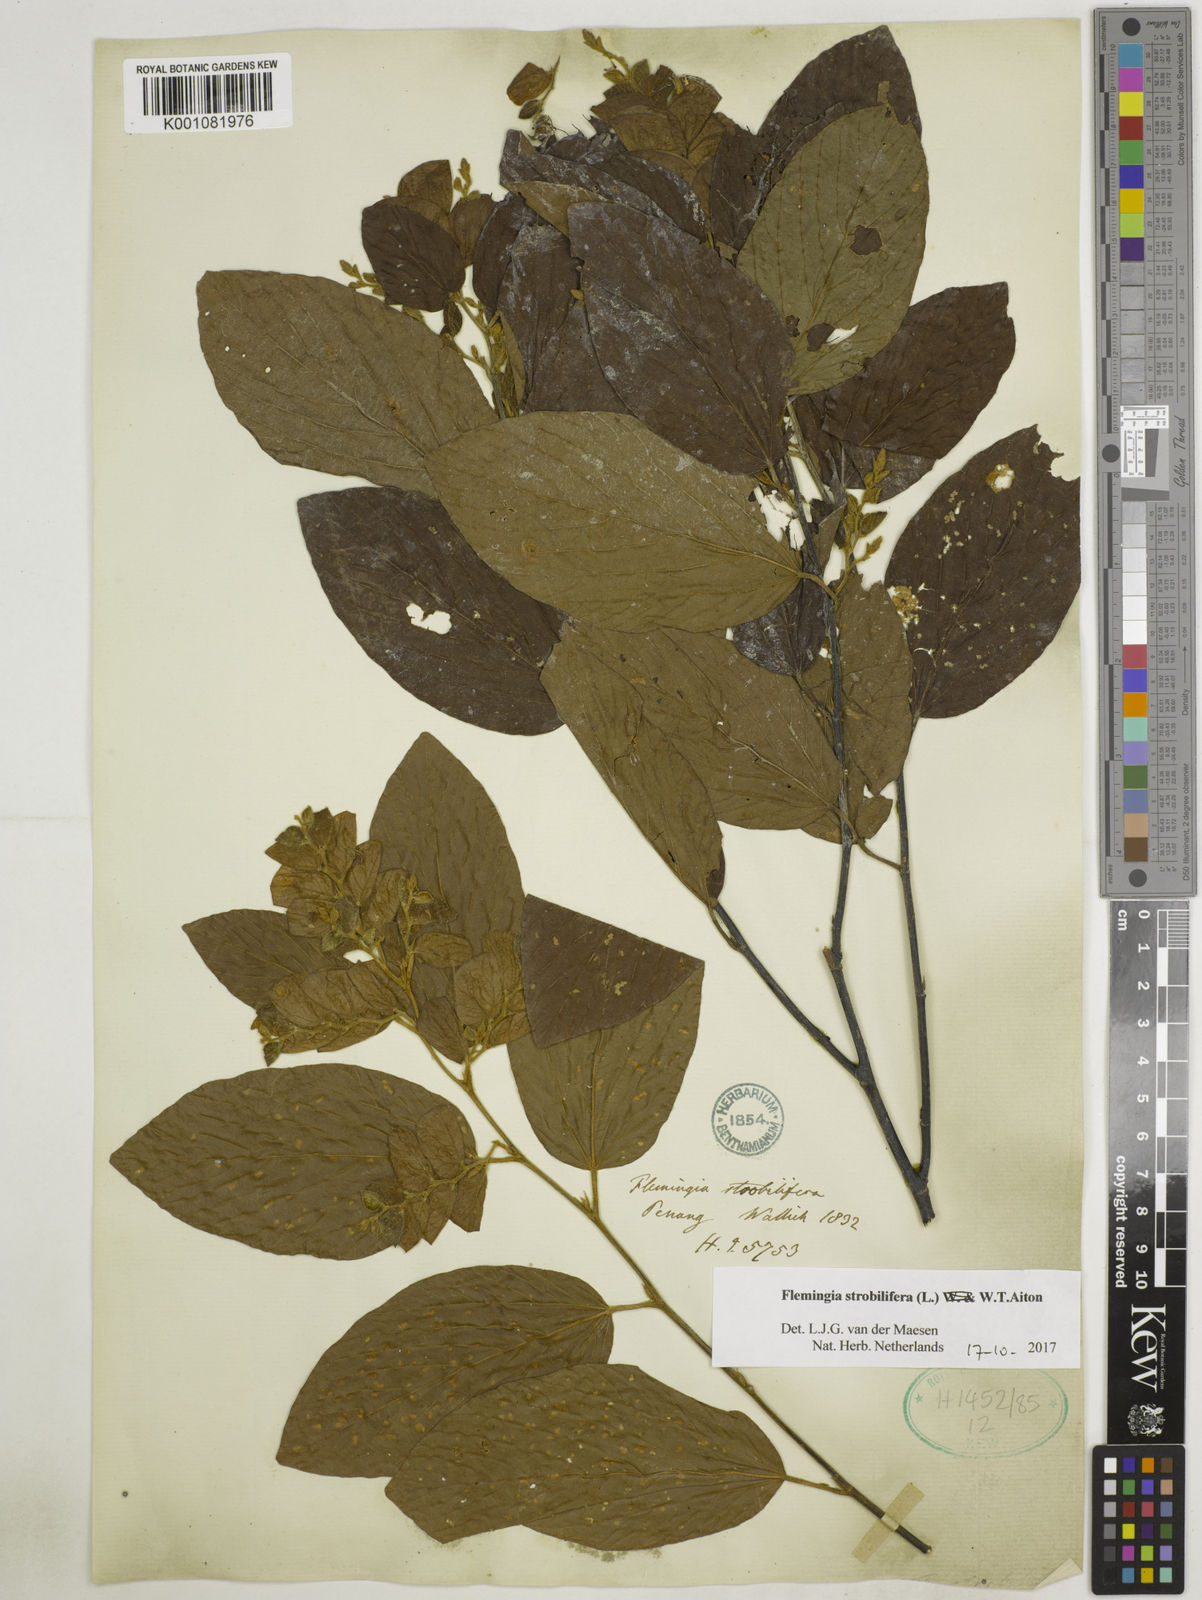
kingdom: Plantae
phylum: Tracheophyta
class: Magnoliopsida
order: Fabales
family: Fabaceae
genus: Flemingia
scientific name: Flemingia strobilifera
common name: Wild hops
